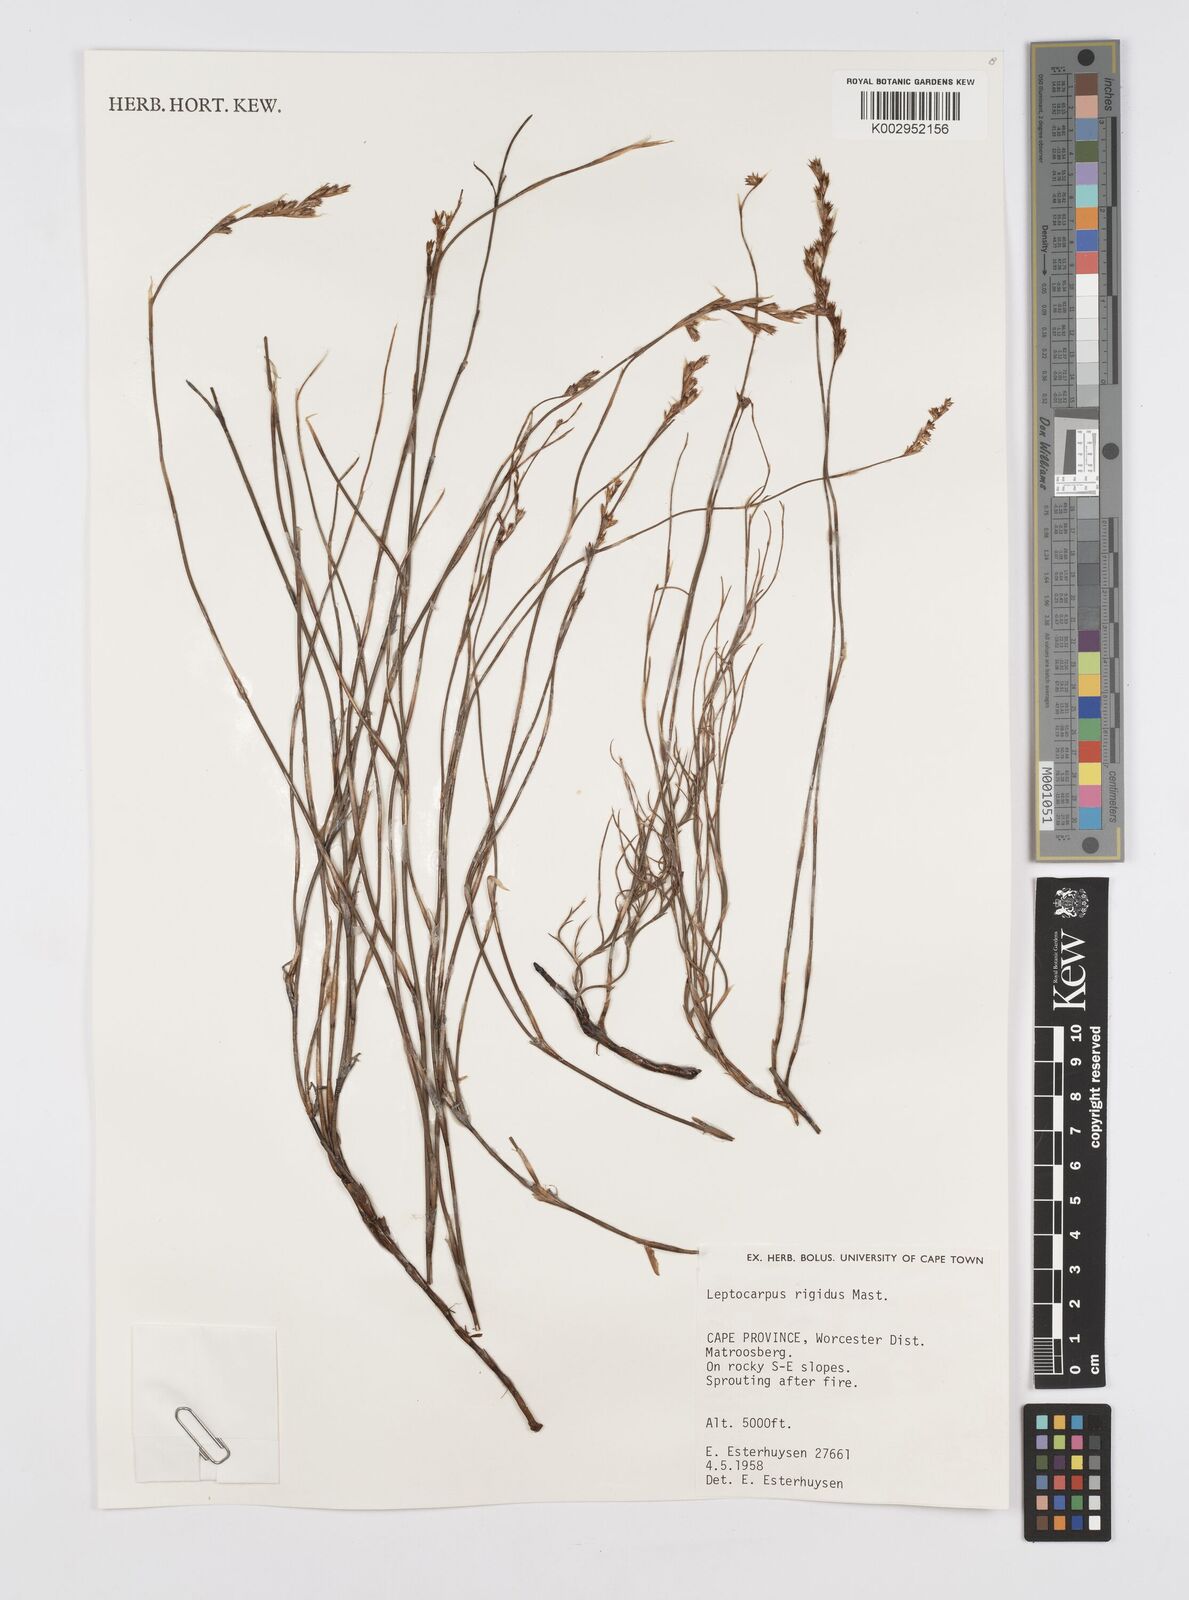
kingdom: Plantae
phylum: Tracheophyta
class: Liliopsida
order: Poales
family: Restionaceae
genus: Restio
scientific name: Restio rigidus
